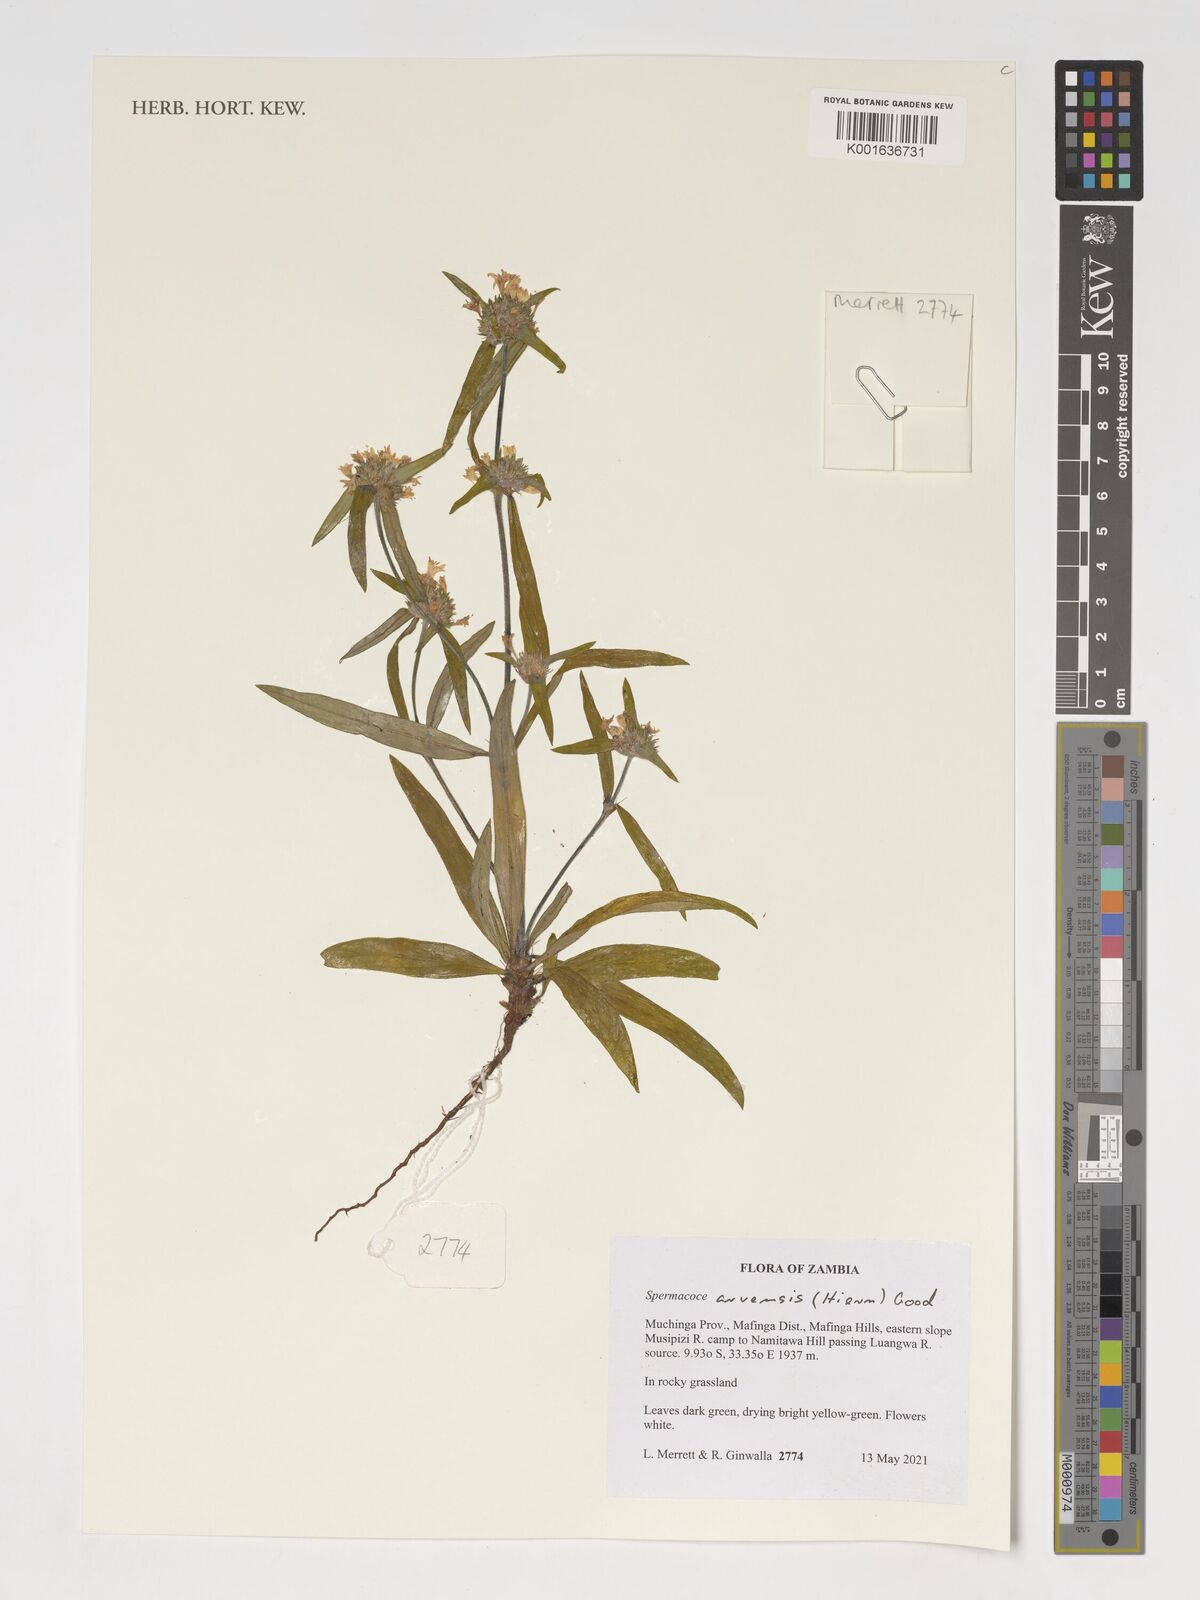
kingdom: Plantae
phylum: Tracheophyta
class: Magnoliopsida
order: Gentianales
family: Rubiaceae
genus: Spermacoce
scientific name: Spermacoce arvensis
